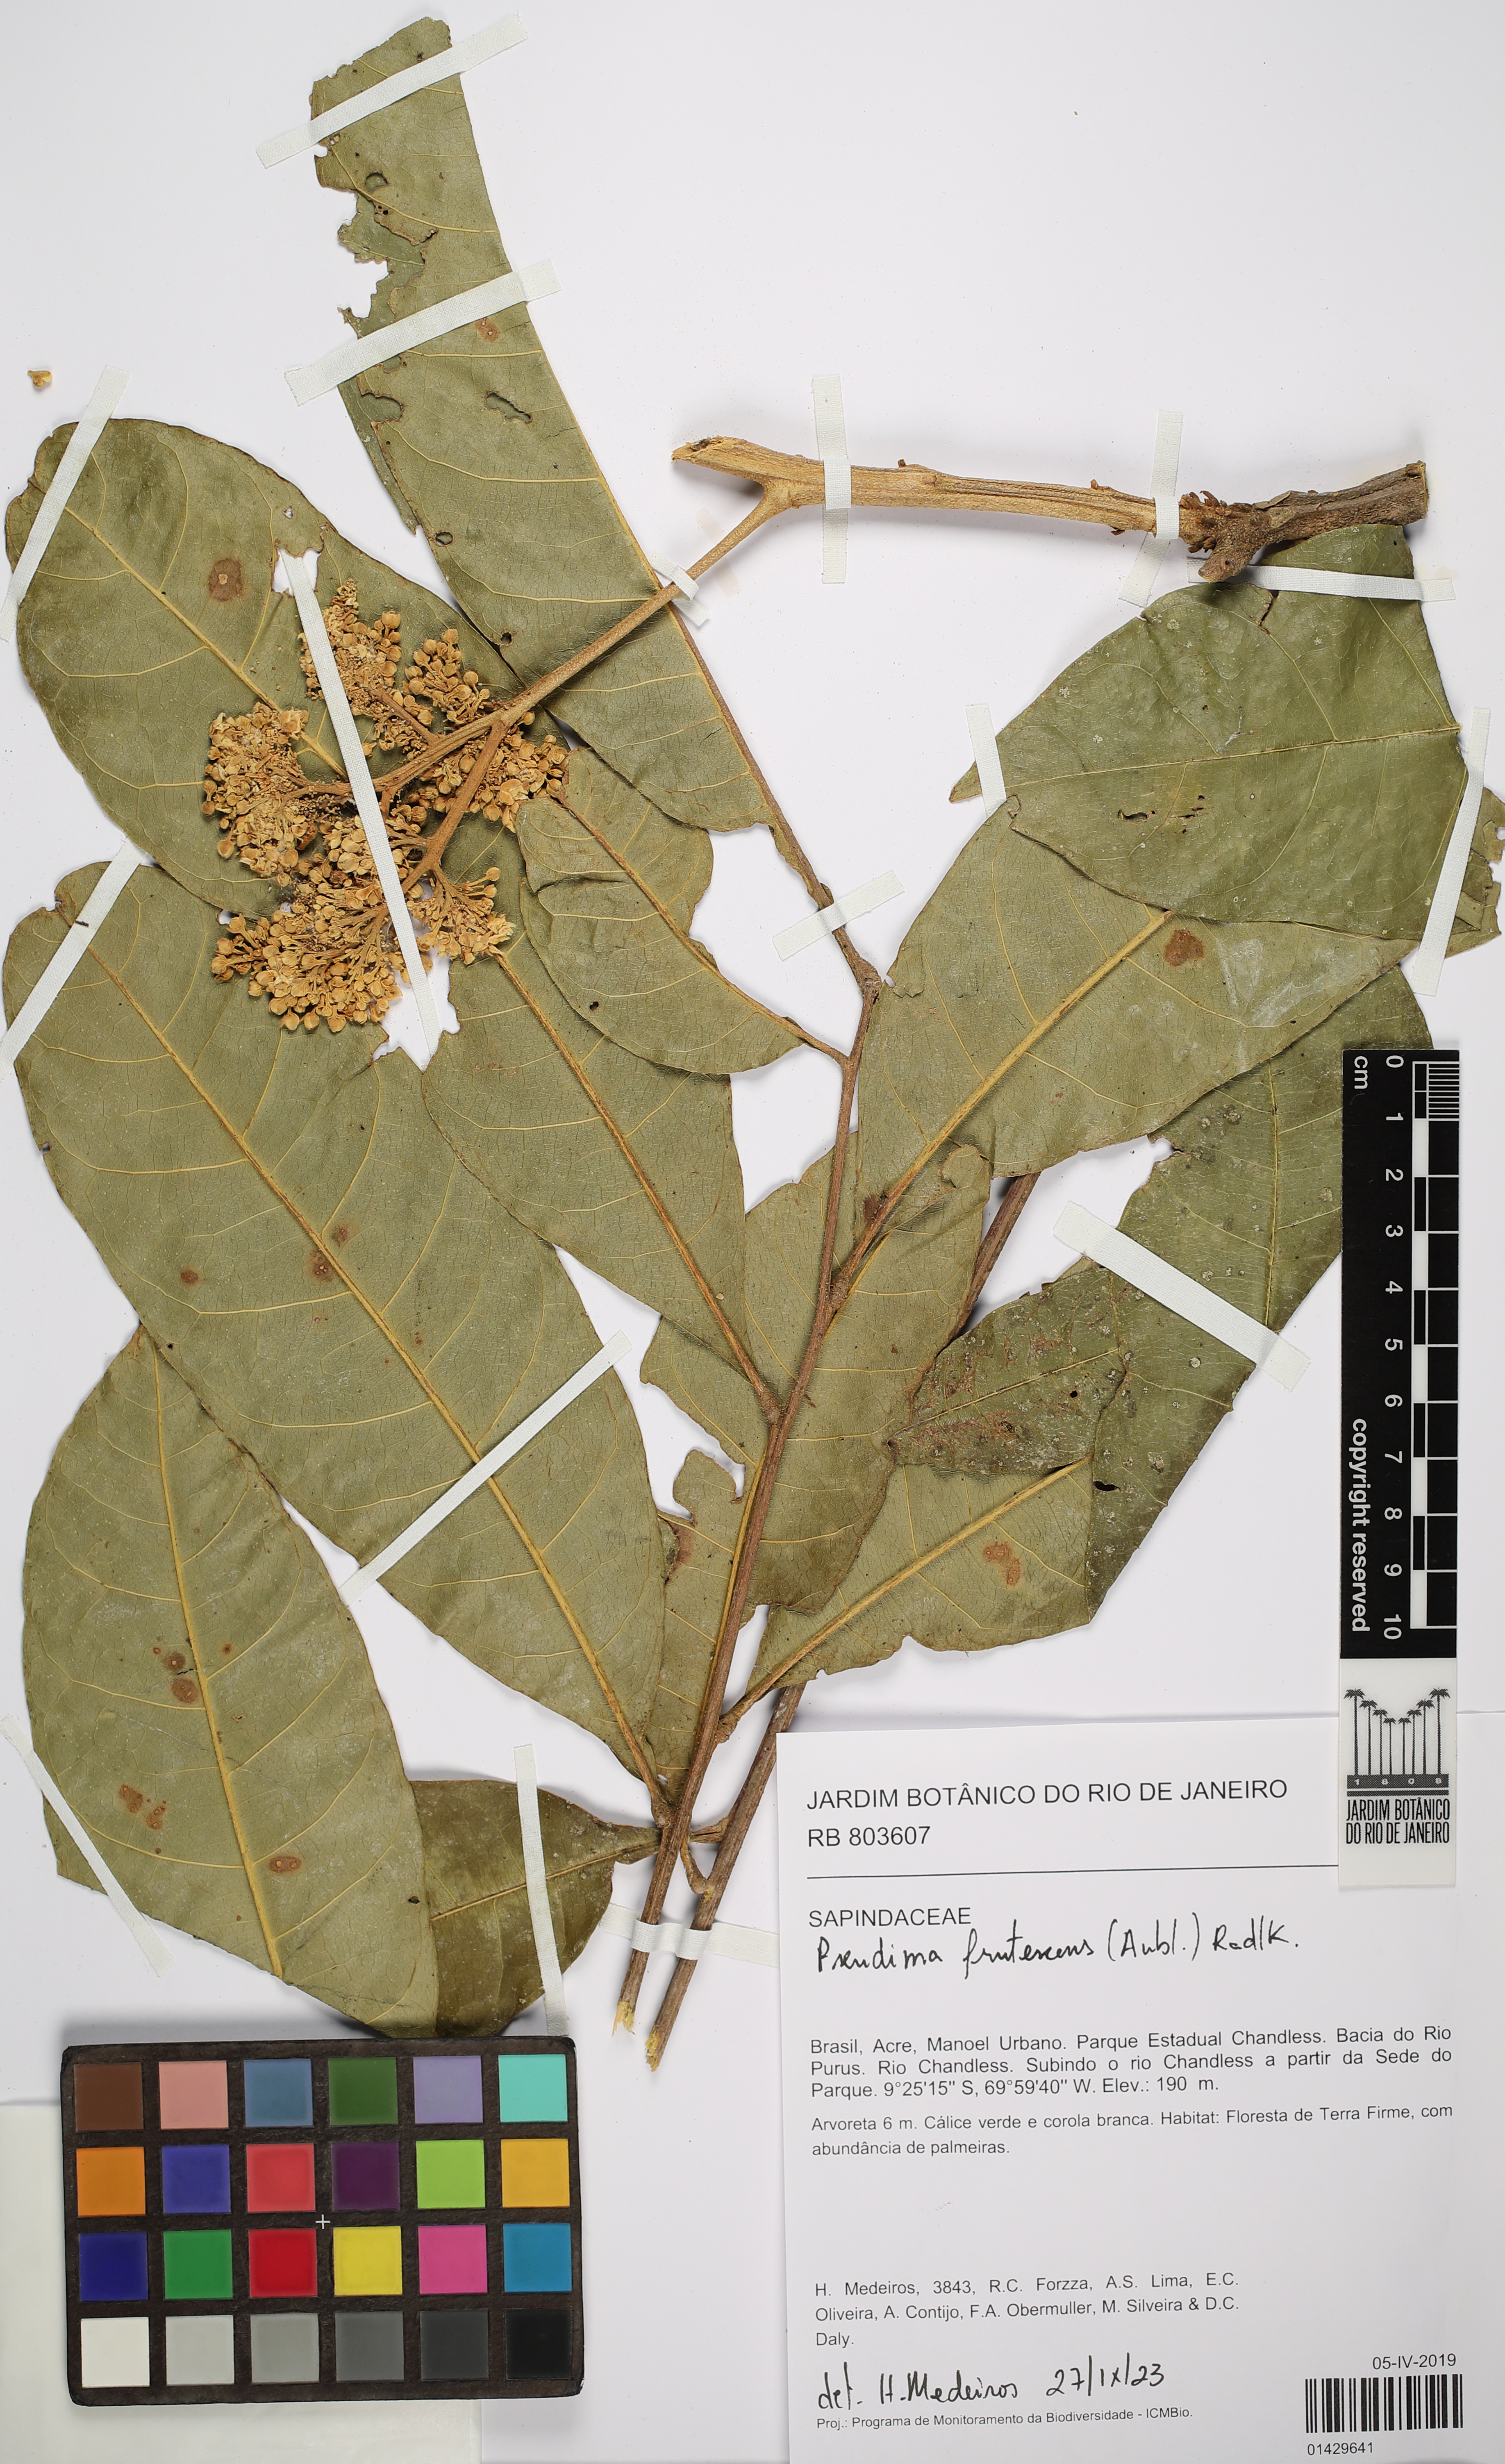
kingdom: Plantae
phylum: Tracheophyta
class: Magnoliopsida
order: Sapindales
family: Sapindaceae
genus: Pseudima
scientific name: Pseudima frutescens
